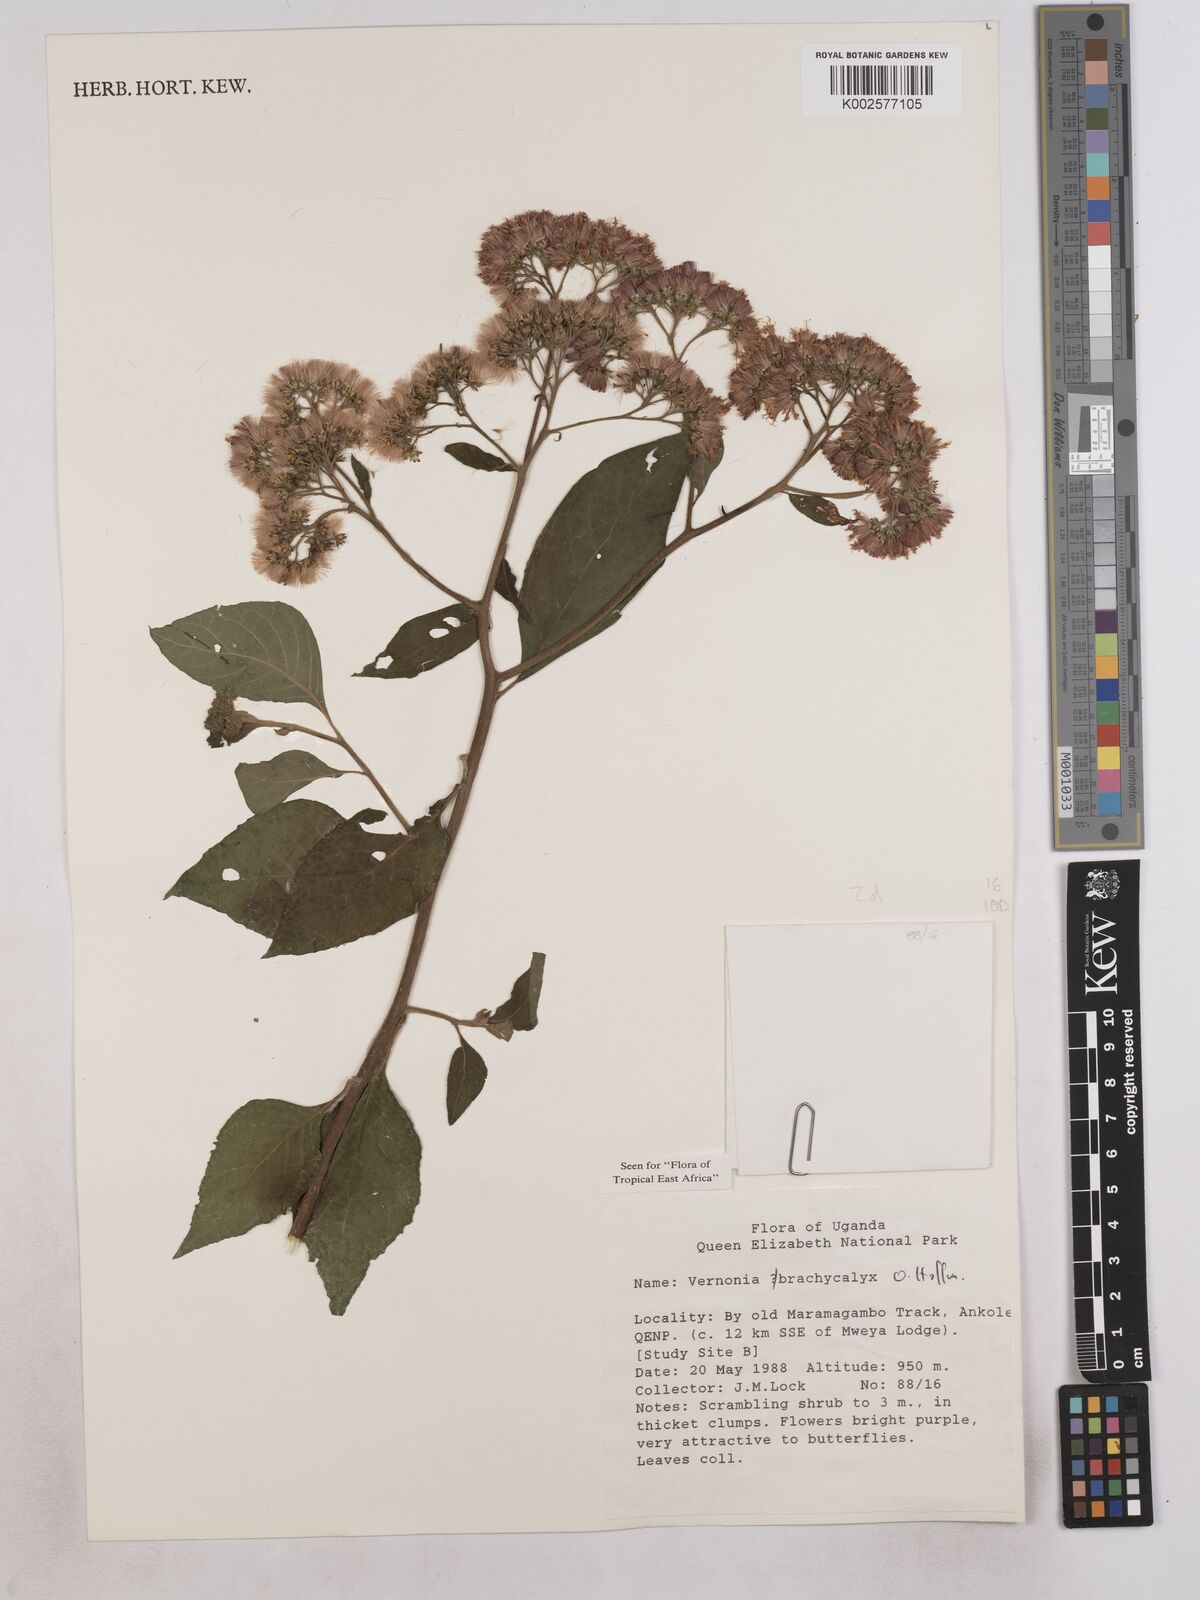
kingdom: Plantae
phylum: Tracheophyta
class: Magnoliopsida
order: Asterales
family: Asteraceae
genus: Hoffmannanthus
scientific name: Hoffmannanthus abbotianus
